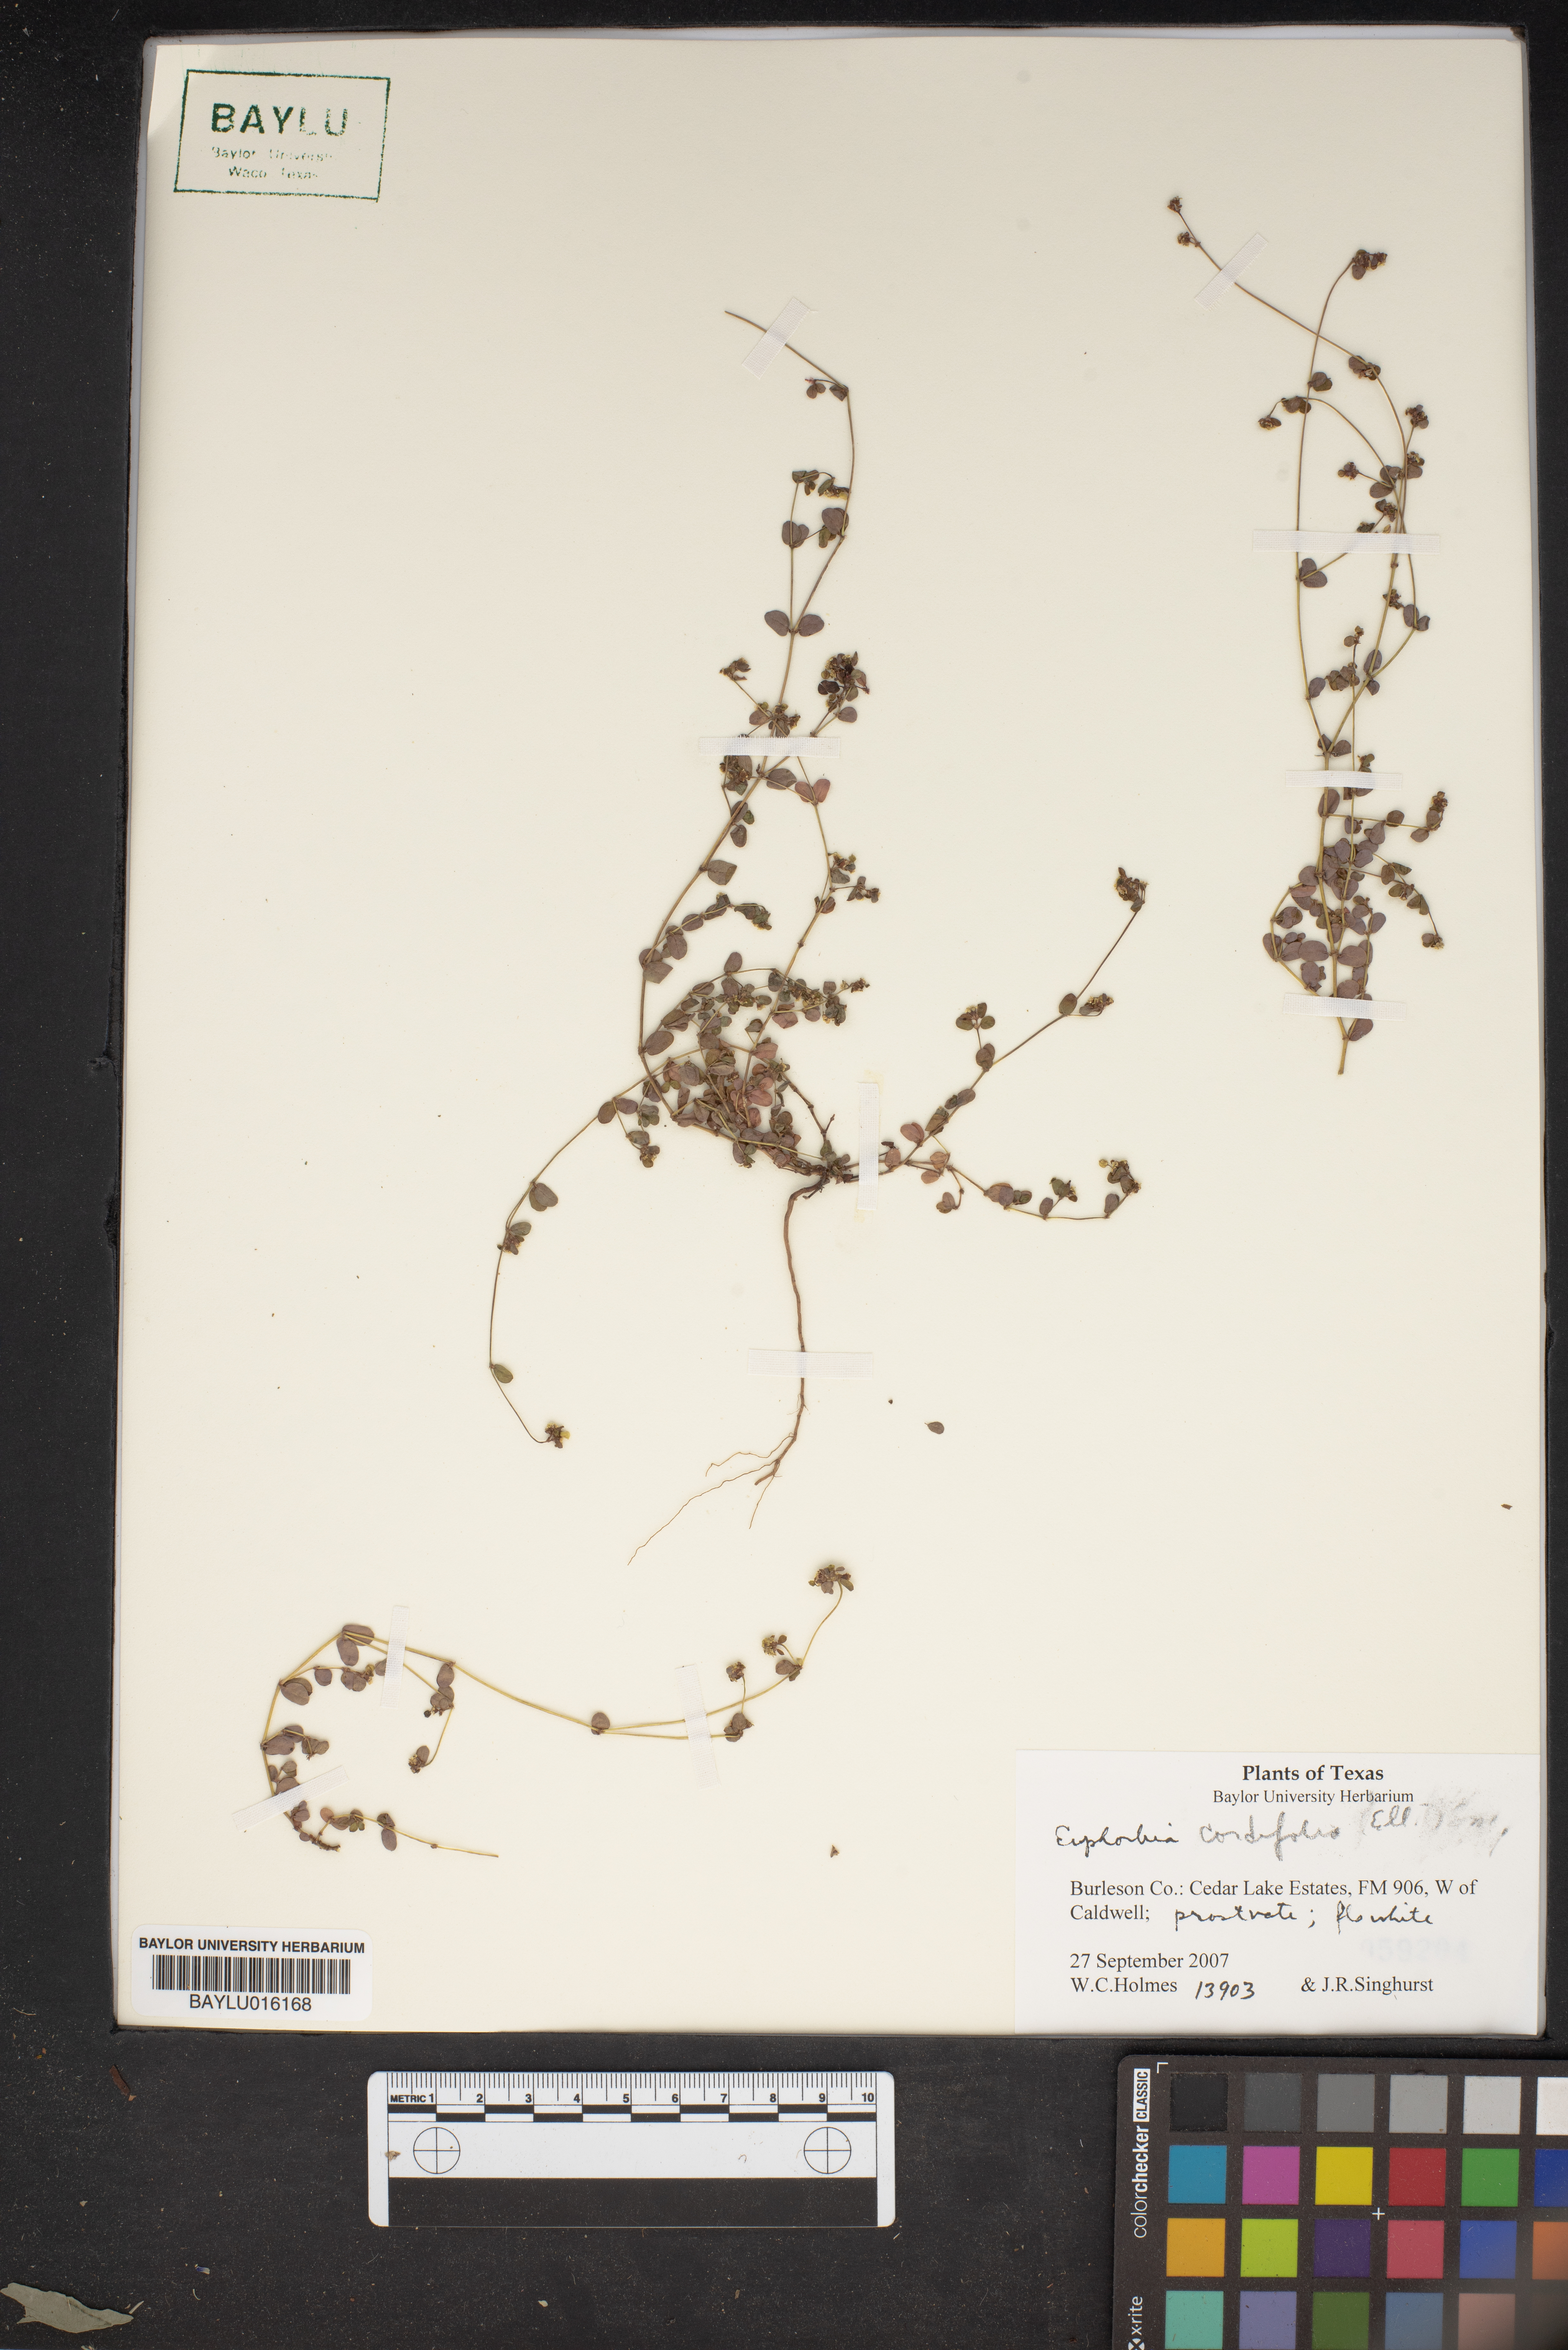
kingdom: Plantae
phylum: Tracheophyta
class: Magnoliopsida
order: Malpighiales
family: Euphorbiaceae
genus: Euphorbia
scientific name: Euphorbia cordifolia
